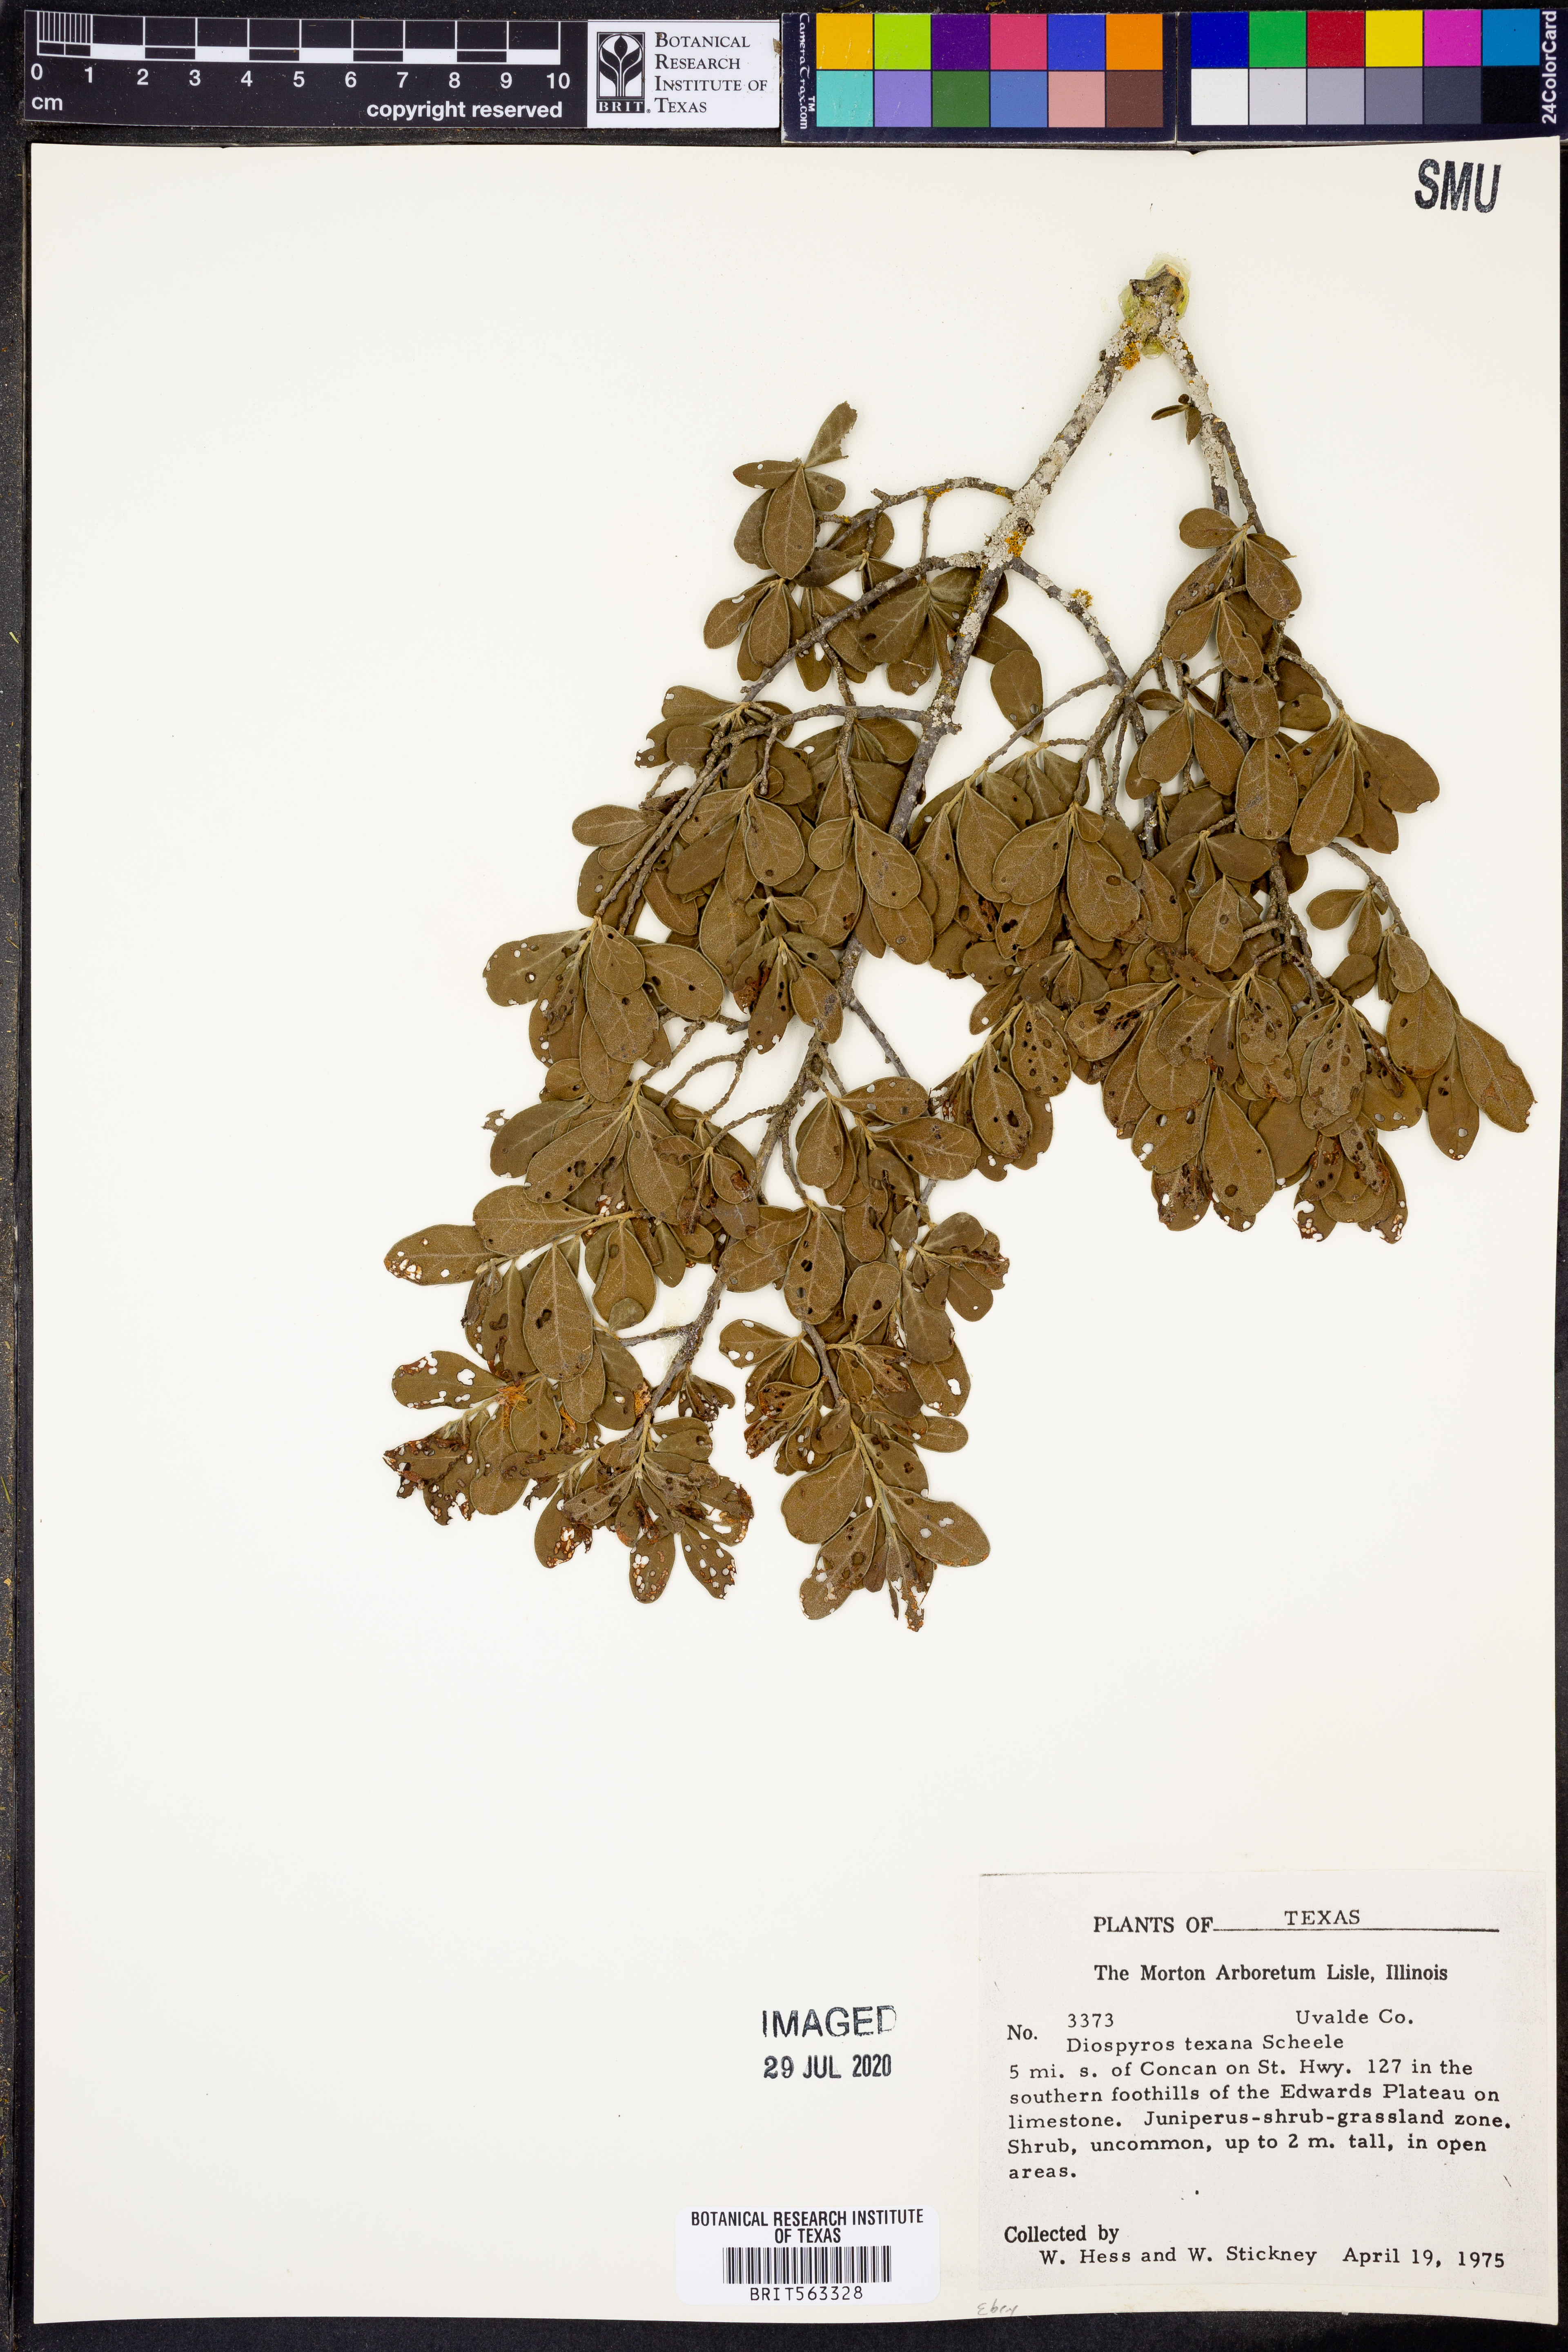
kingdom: Plantae
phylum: Tracheophyta
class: Magnoliopsida
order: Ericales
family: Ebenaceae
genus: Diospyros
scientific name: Diospyros texana
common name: Texas persimmon
